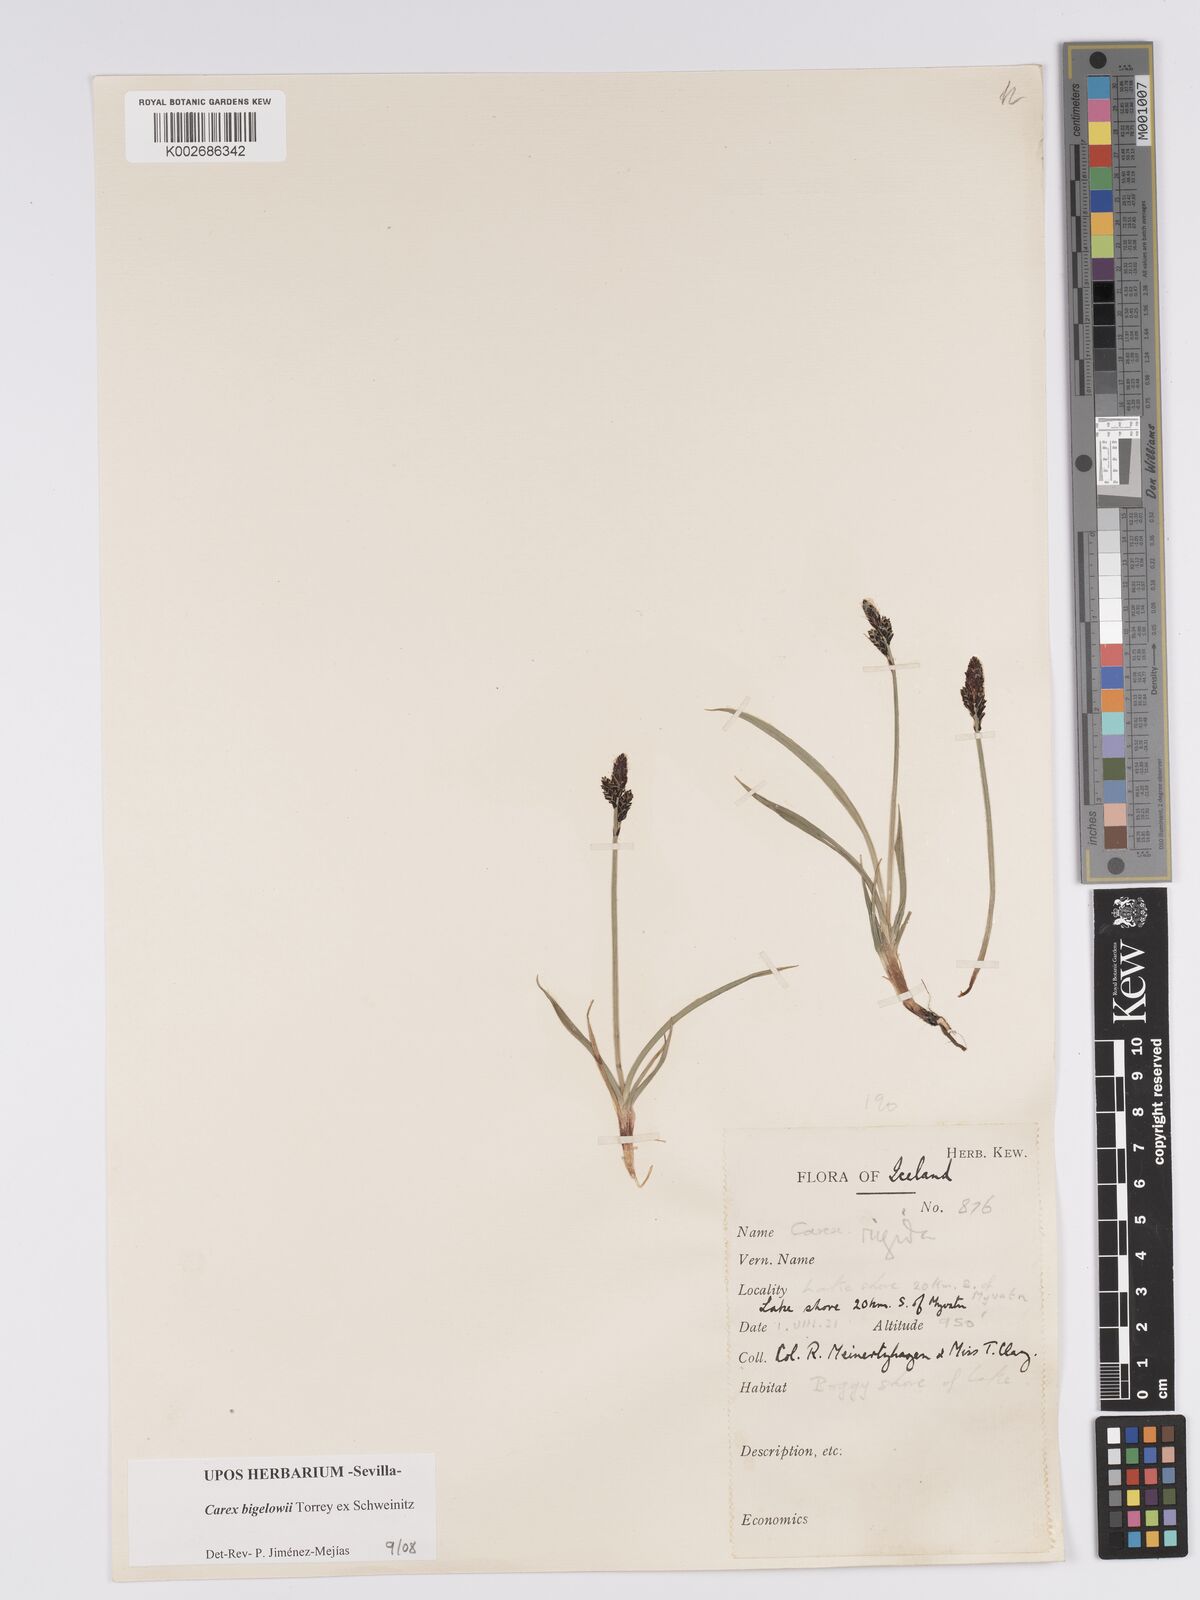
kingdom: Plantae
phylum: Tracheophyta
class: Liliopsida
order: Poales
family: Cyperaceae
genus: Carex
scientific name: Carex bigelowii
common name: Stiff sedge
